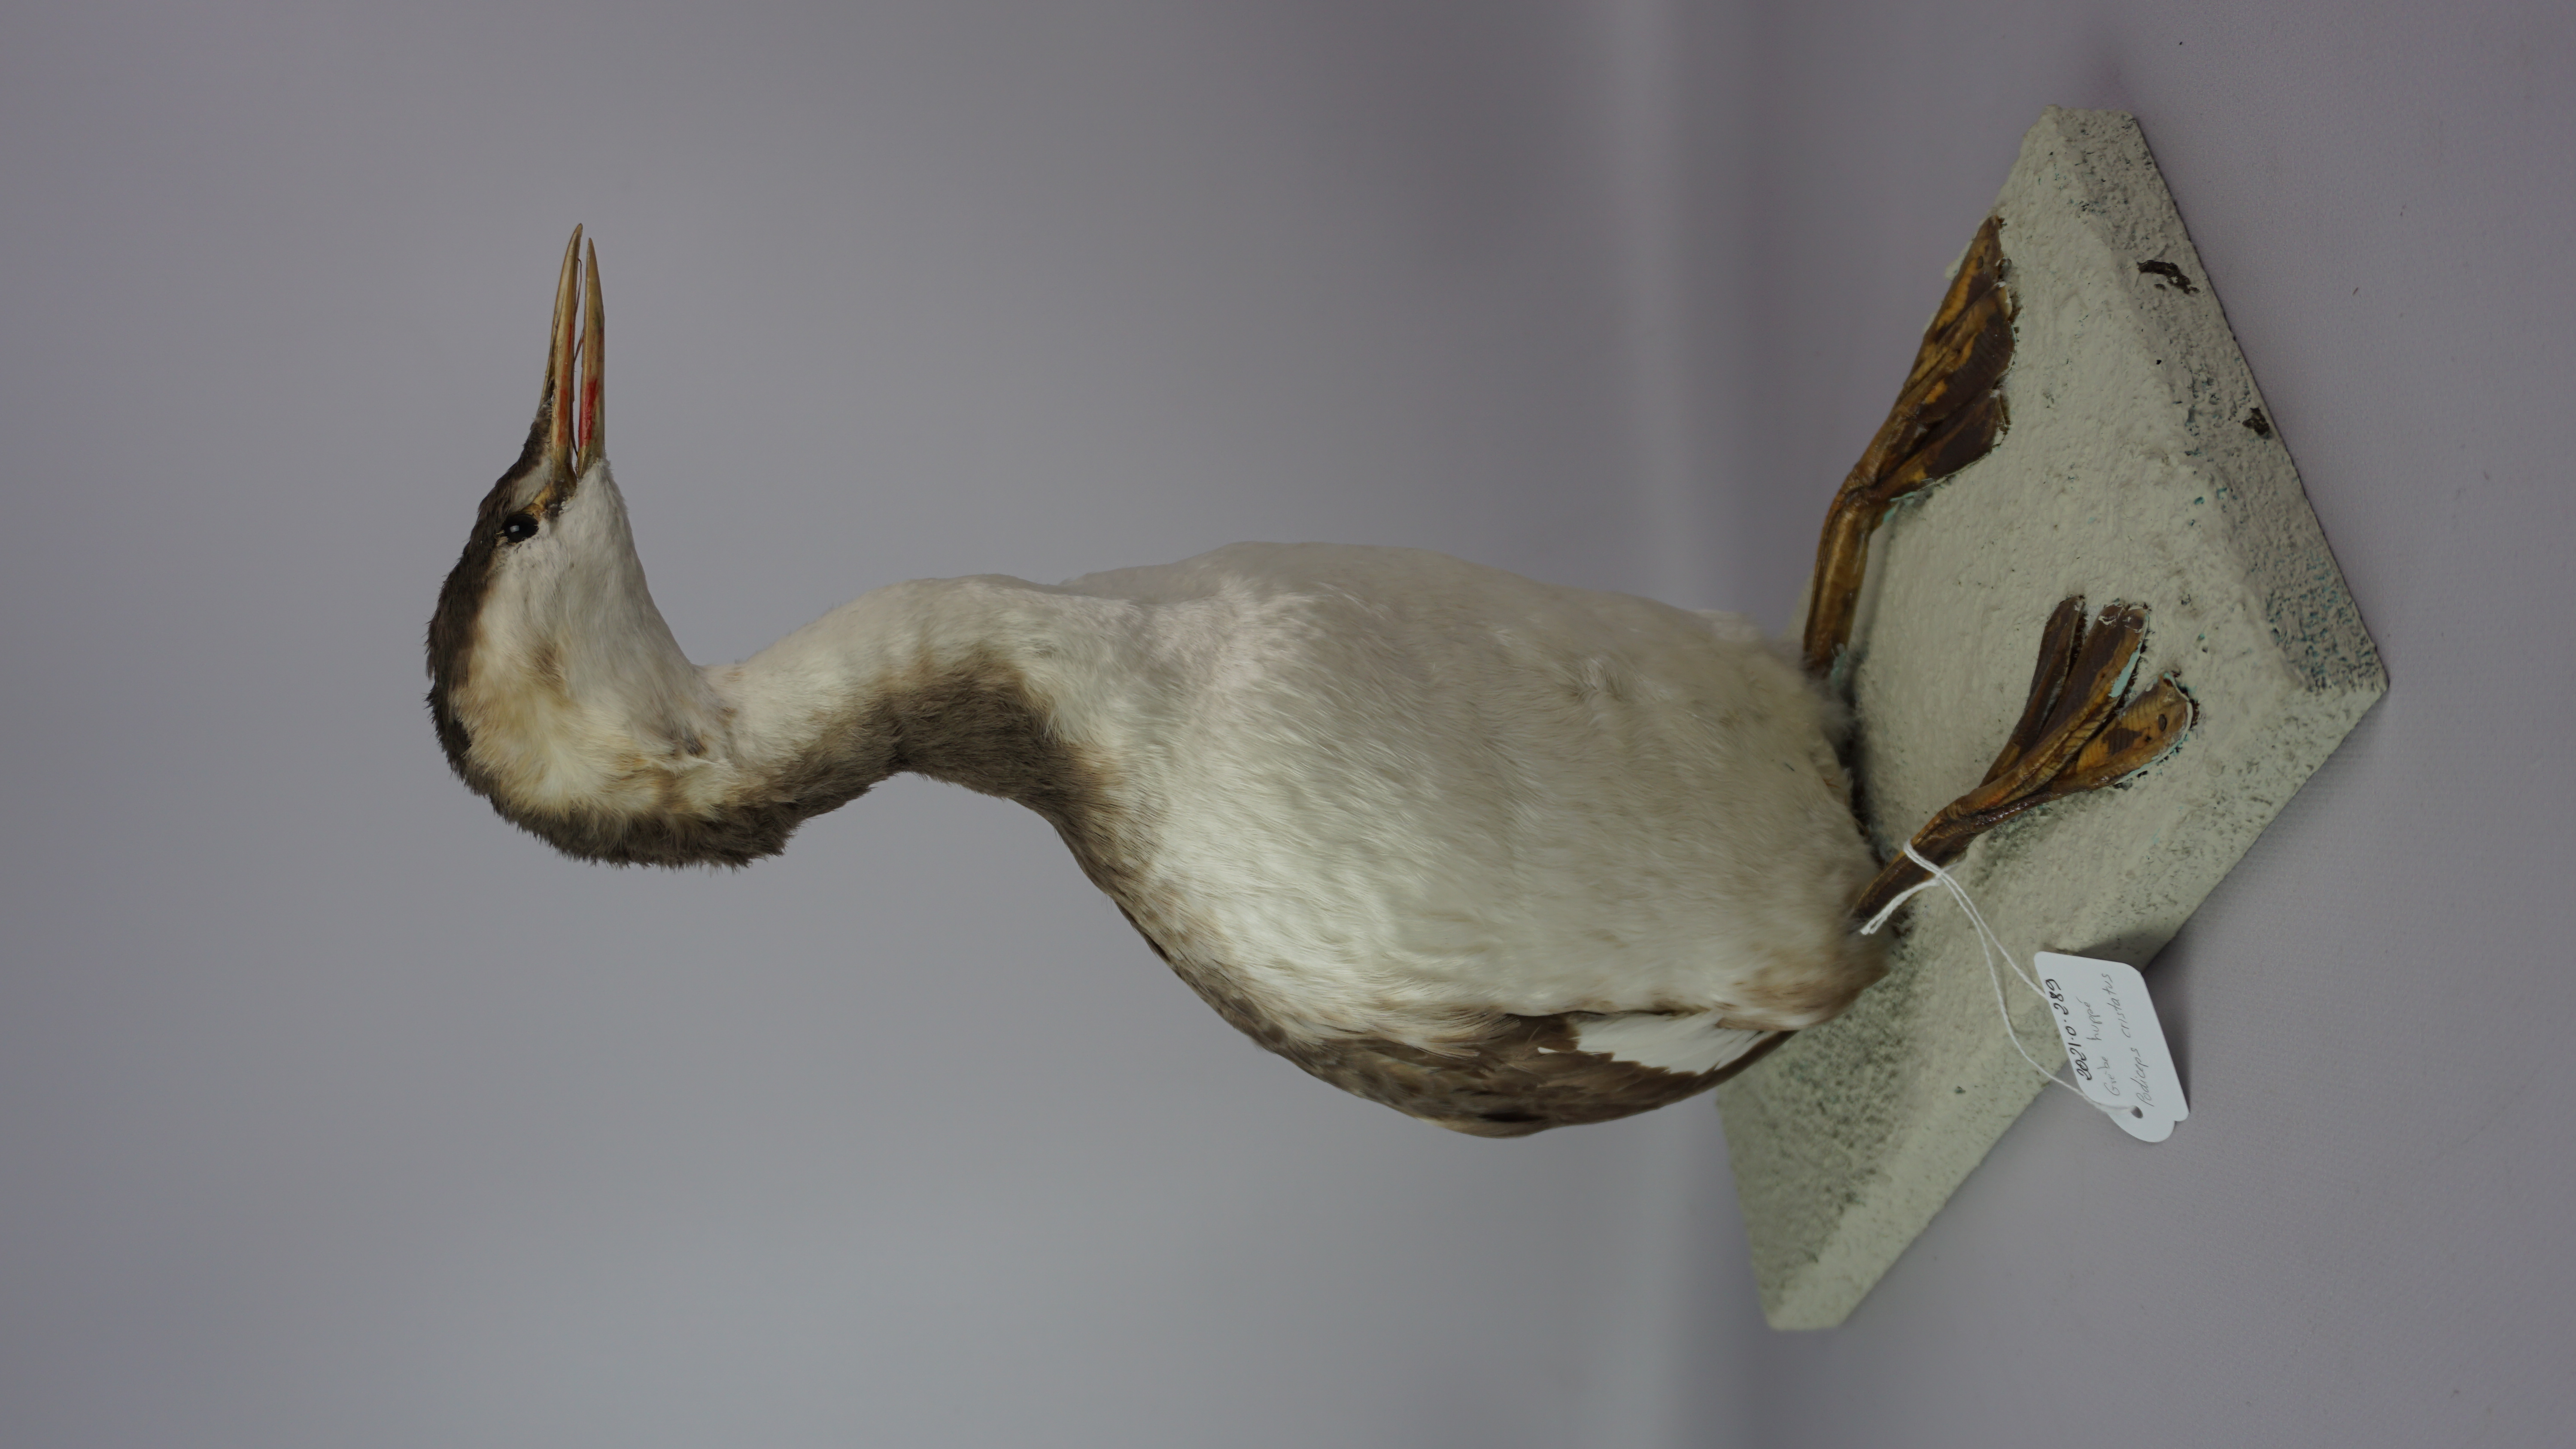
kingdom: Animalia
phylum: Chordata
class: Aves
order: Podicipediformes
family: Podicipedidae
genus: Podiceps
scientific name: Podiceps cristatus
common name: Great crested grebe
